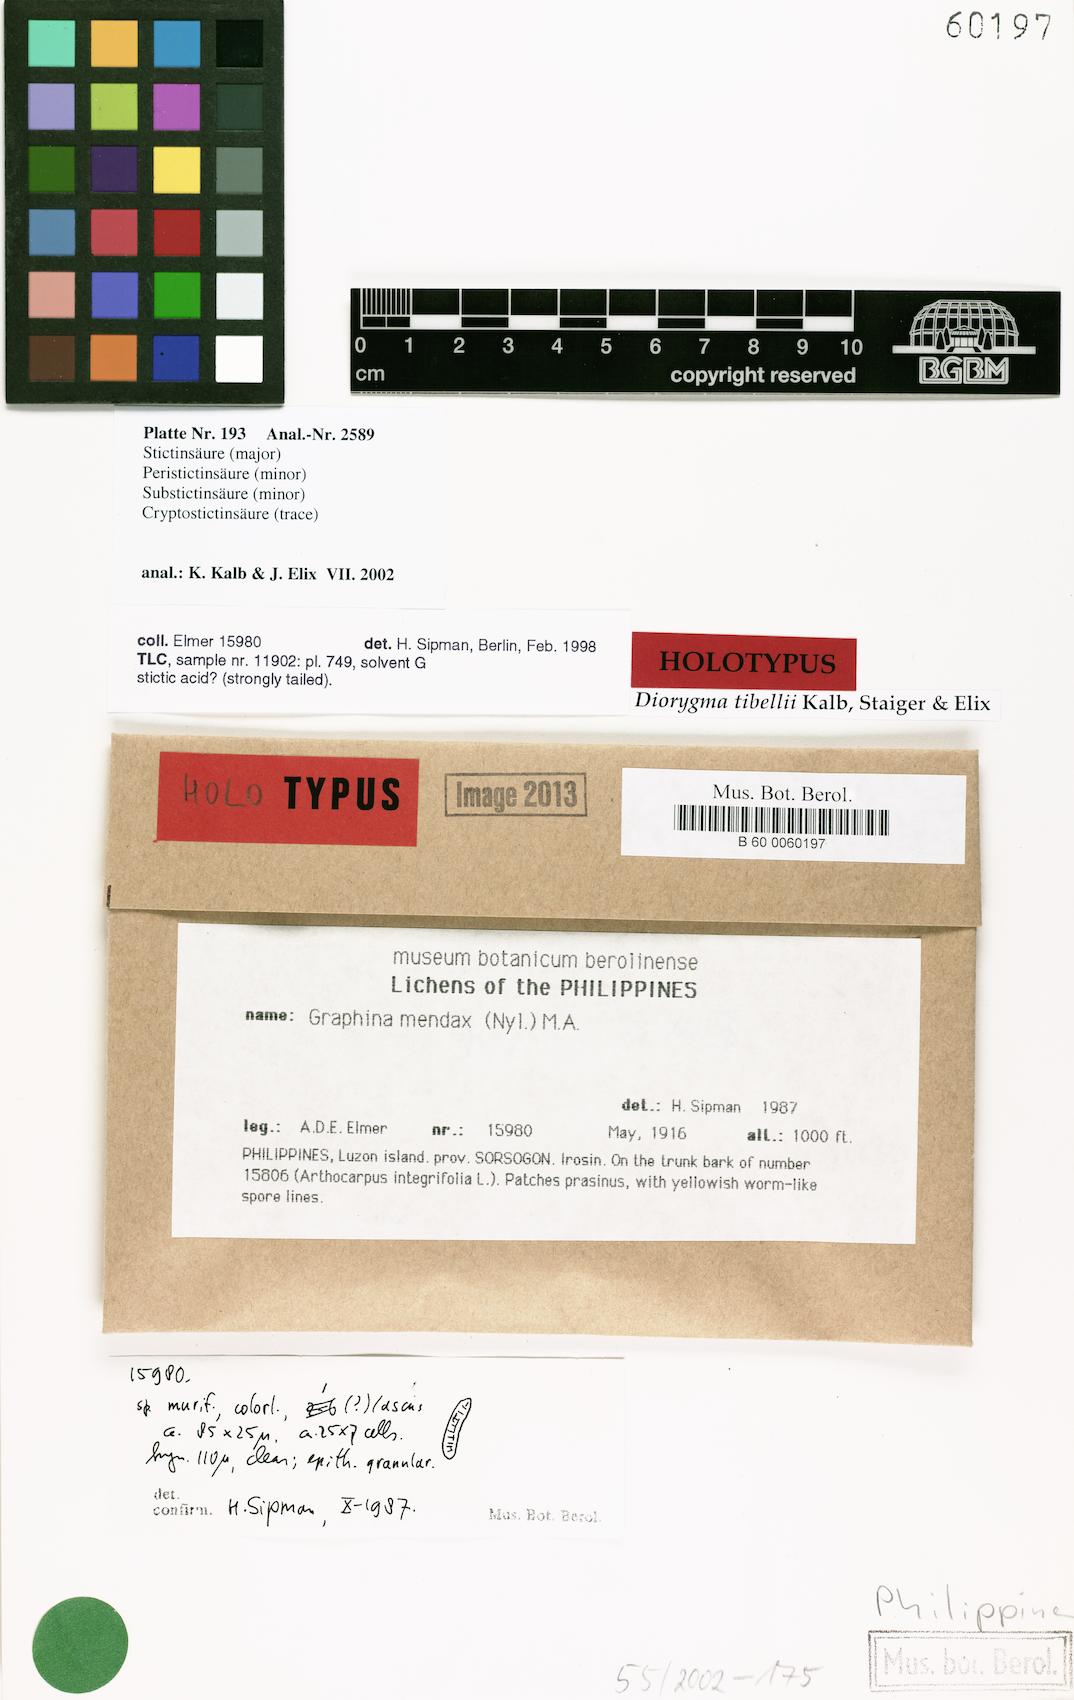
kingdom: Fungi
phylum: Ascomycota
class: Lecanoromycetes
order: Ostropales
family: Graphidaceae
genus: Diorygma
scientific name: Diorygma tibellii
